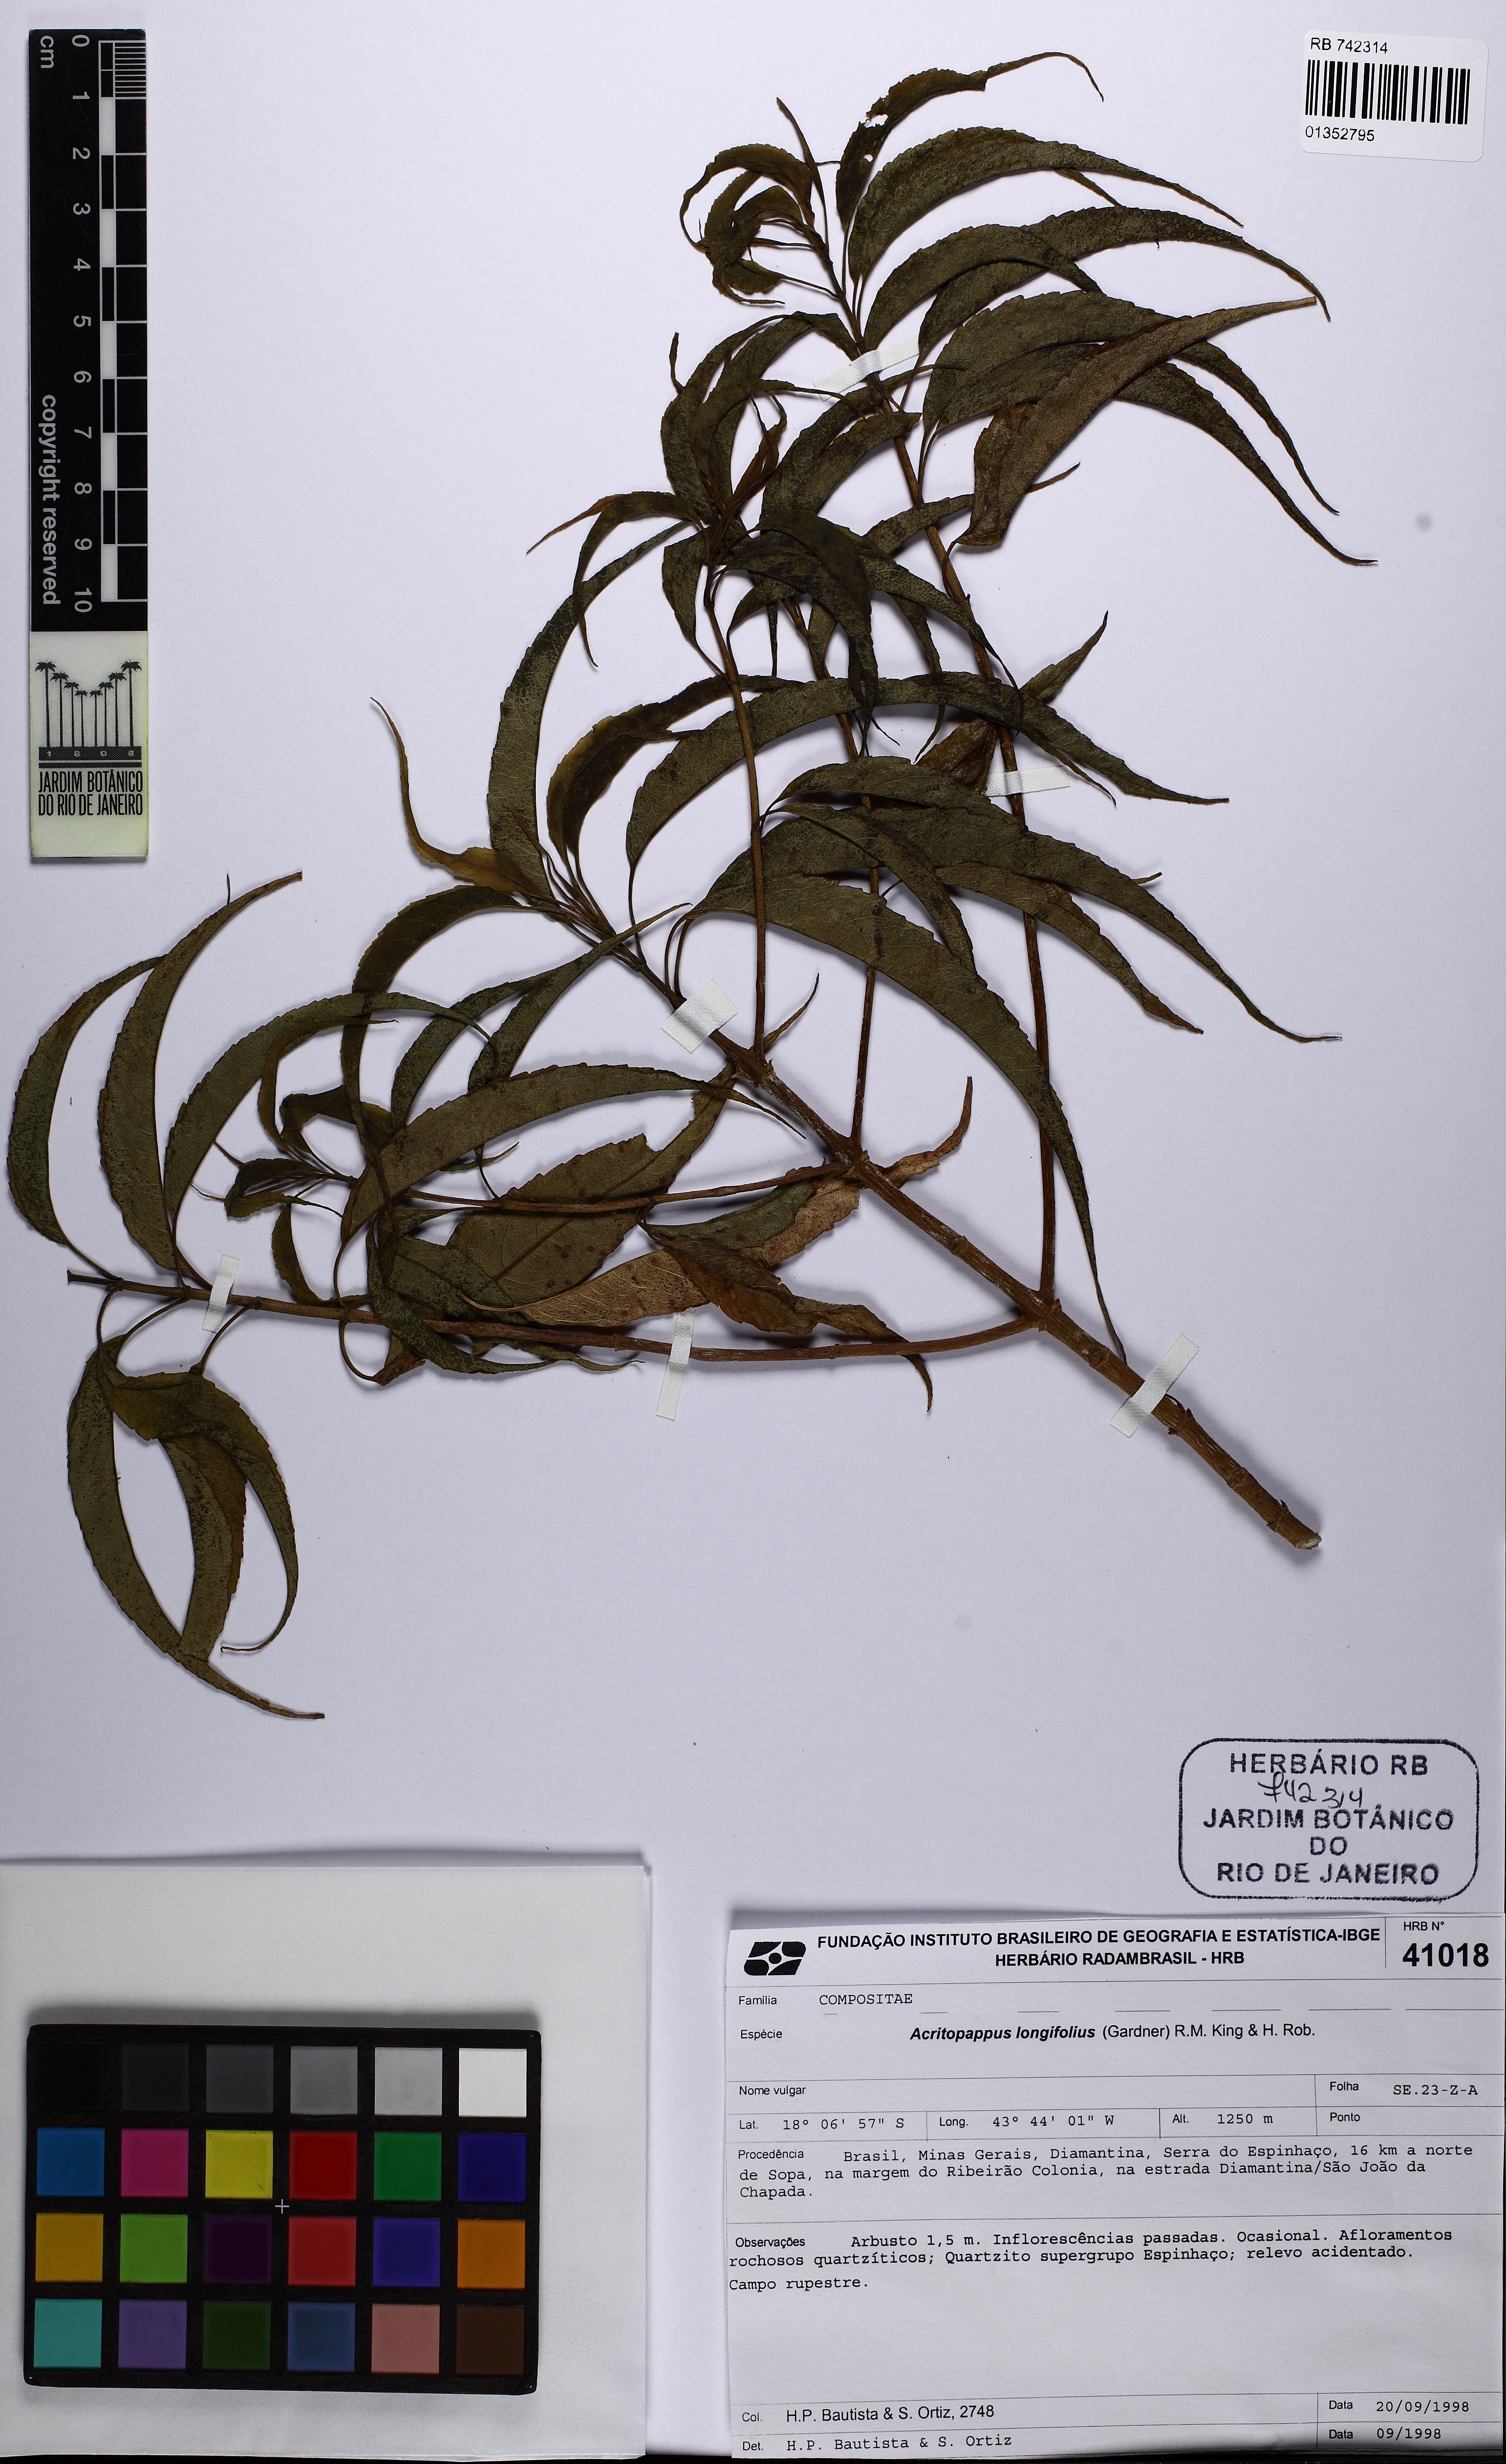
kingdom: Plantae
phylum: Tracheophyta
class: Magnoliopsida
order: Asterales
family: Asteraceae
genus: Acritopappus
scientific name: Acritopappus longifolius
